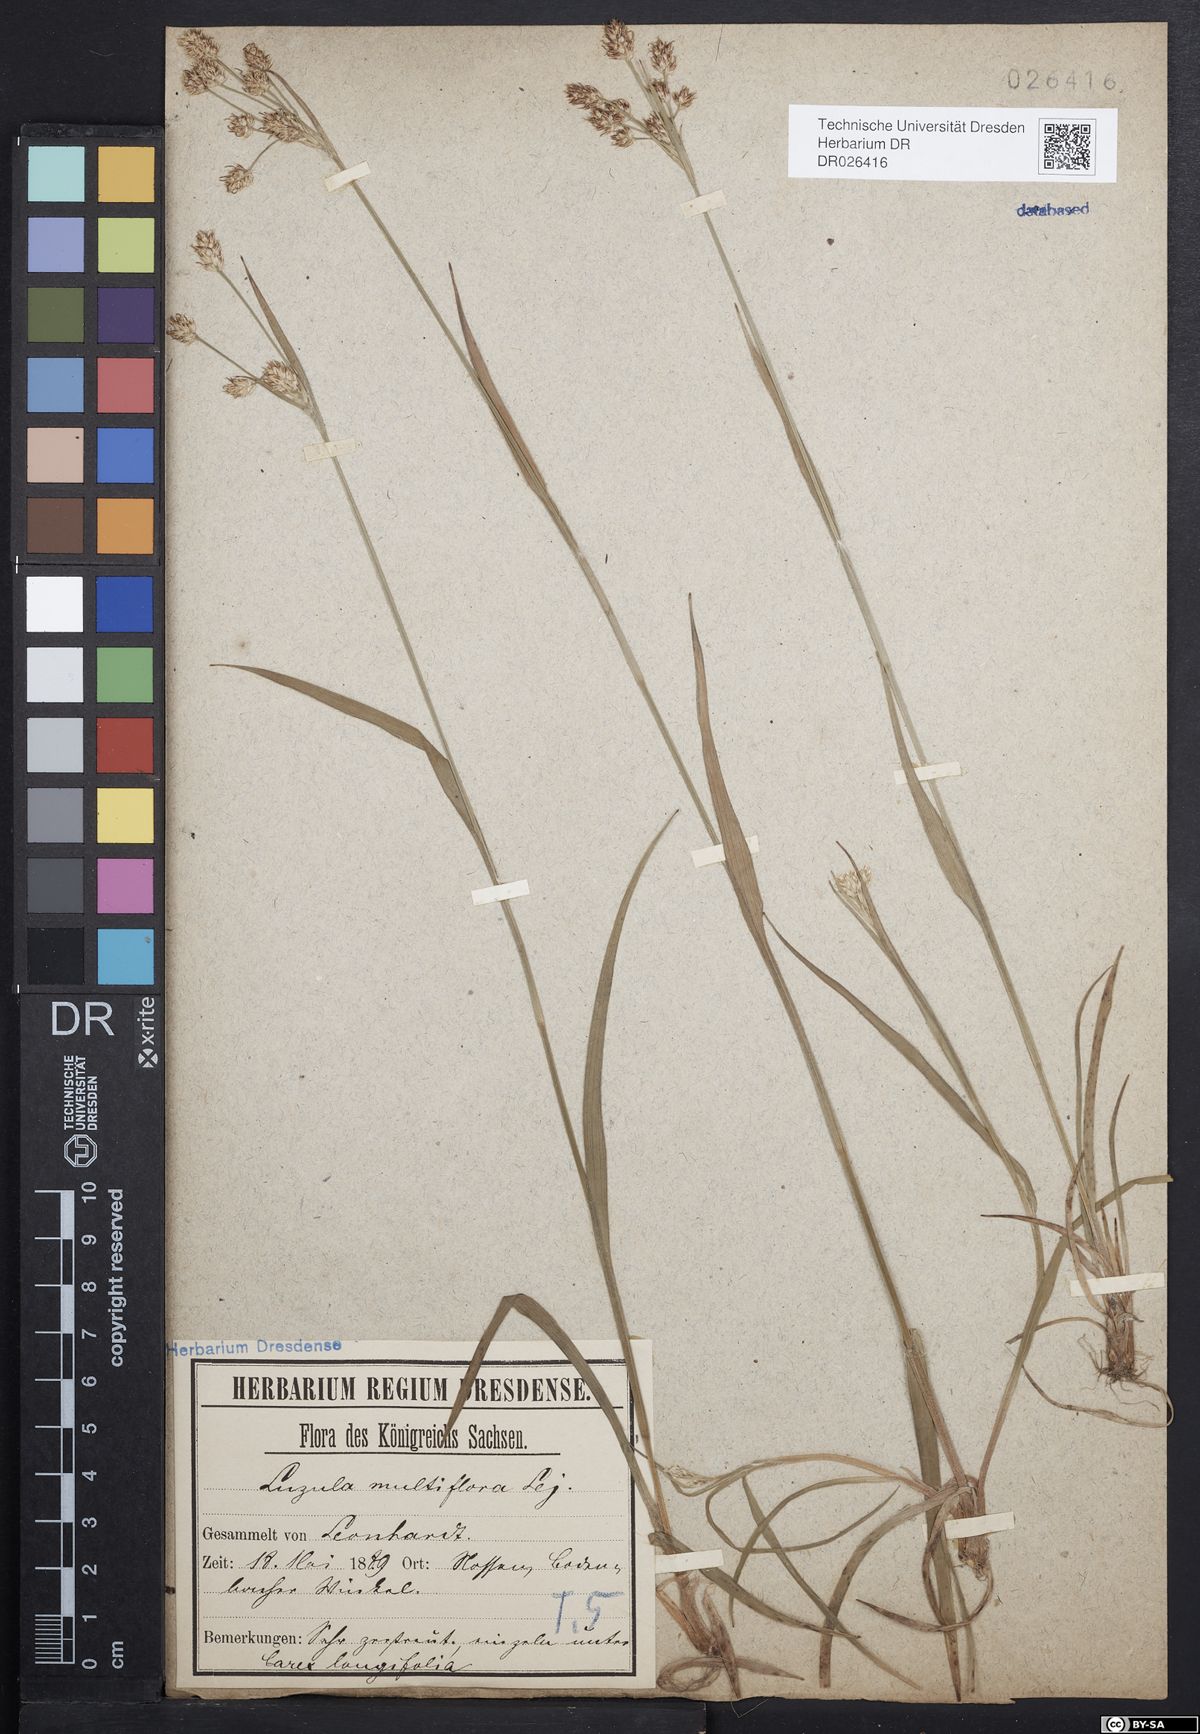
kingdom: Plantae
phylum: Tracheophyta
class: Liliopsida
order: Poales
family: Juncaceae
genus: Luzula
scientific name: Luzula multiflora
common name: Heath wood-rush
